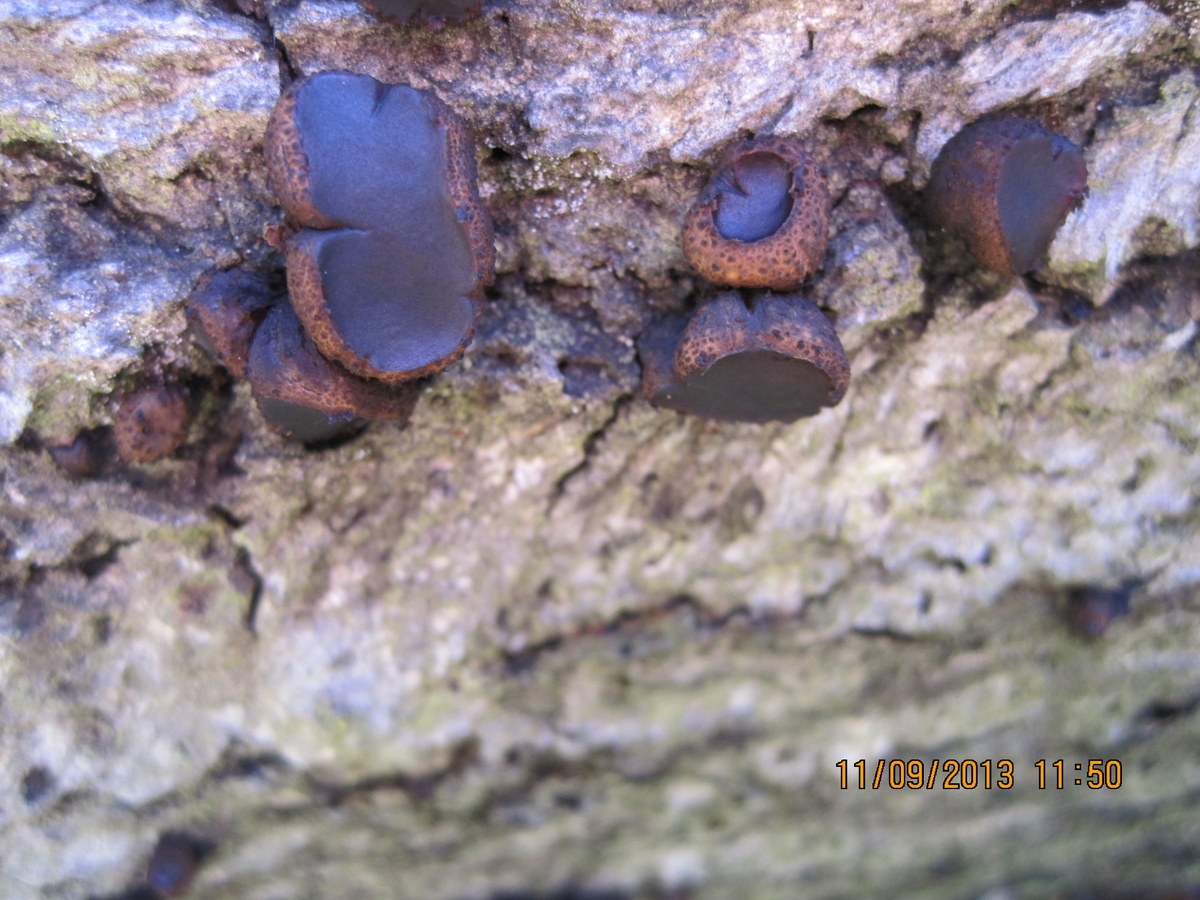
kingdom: Fungi
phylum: Ascomycota
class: Leotiomycetes
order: Phacidiales
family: Phacidiaceae
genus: Bulgaria
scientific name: Bulgaria inquinans
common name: afsmittende topsvamp
